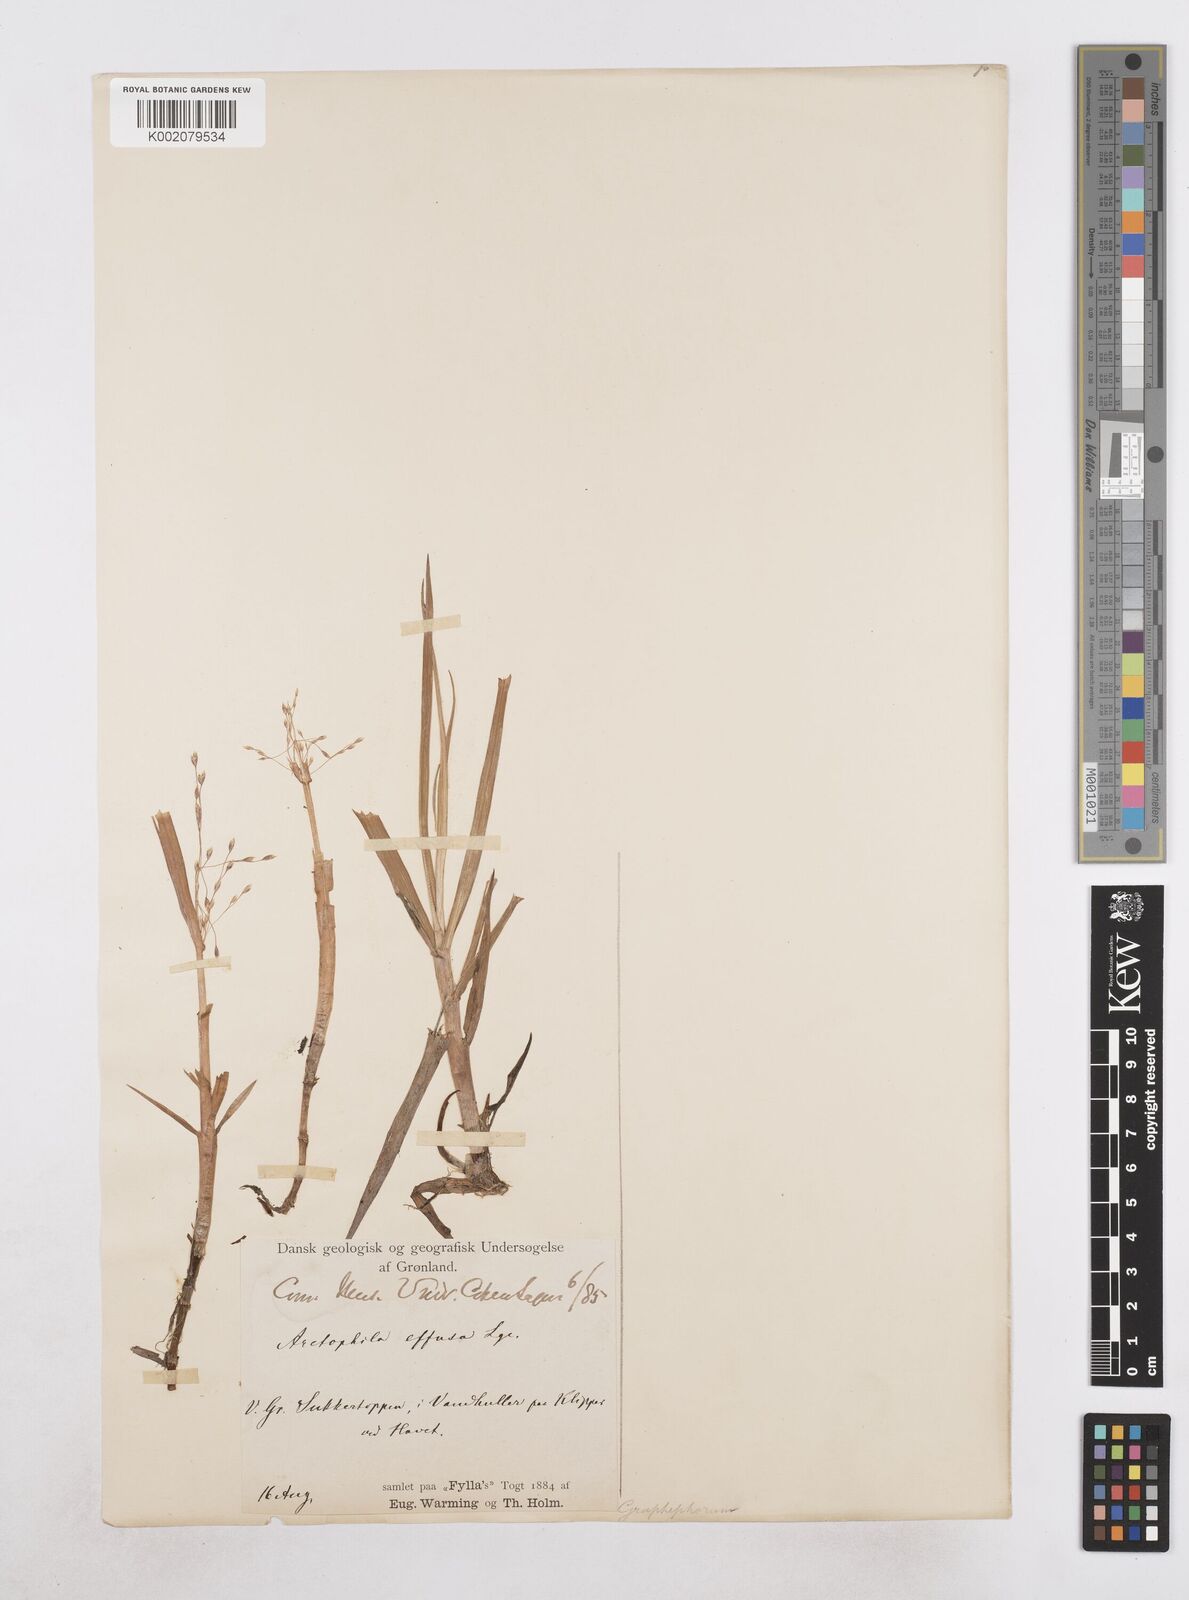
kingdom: Plantae
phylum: Tracheophyta
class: Liliopsida
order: Poales
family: Poaceae
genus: Dupontia
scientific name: Dupontia fulva
